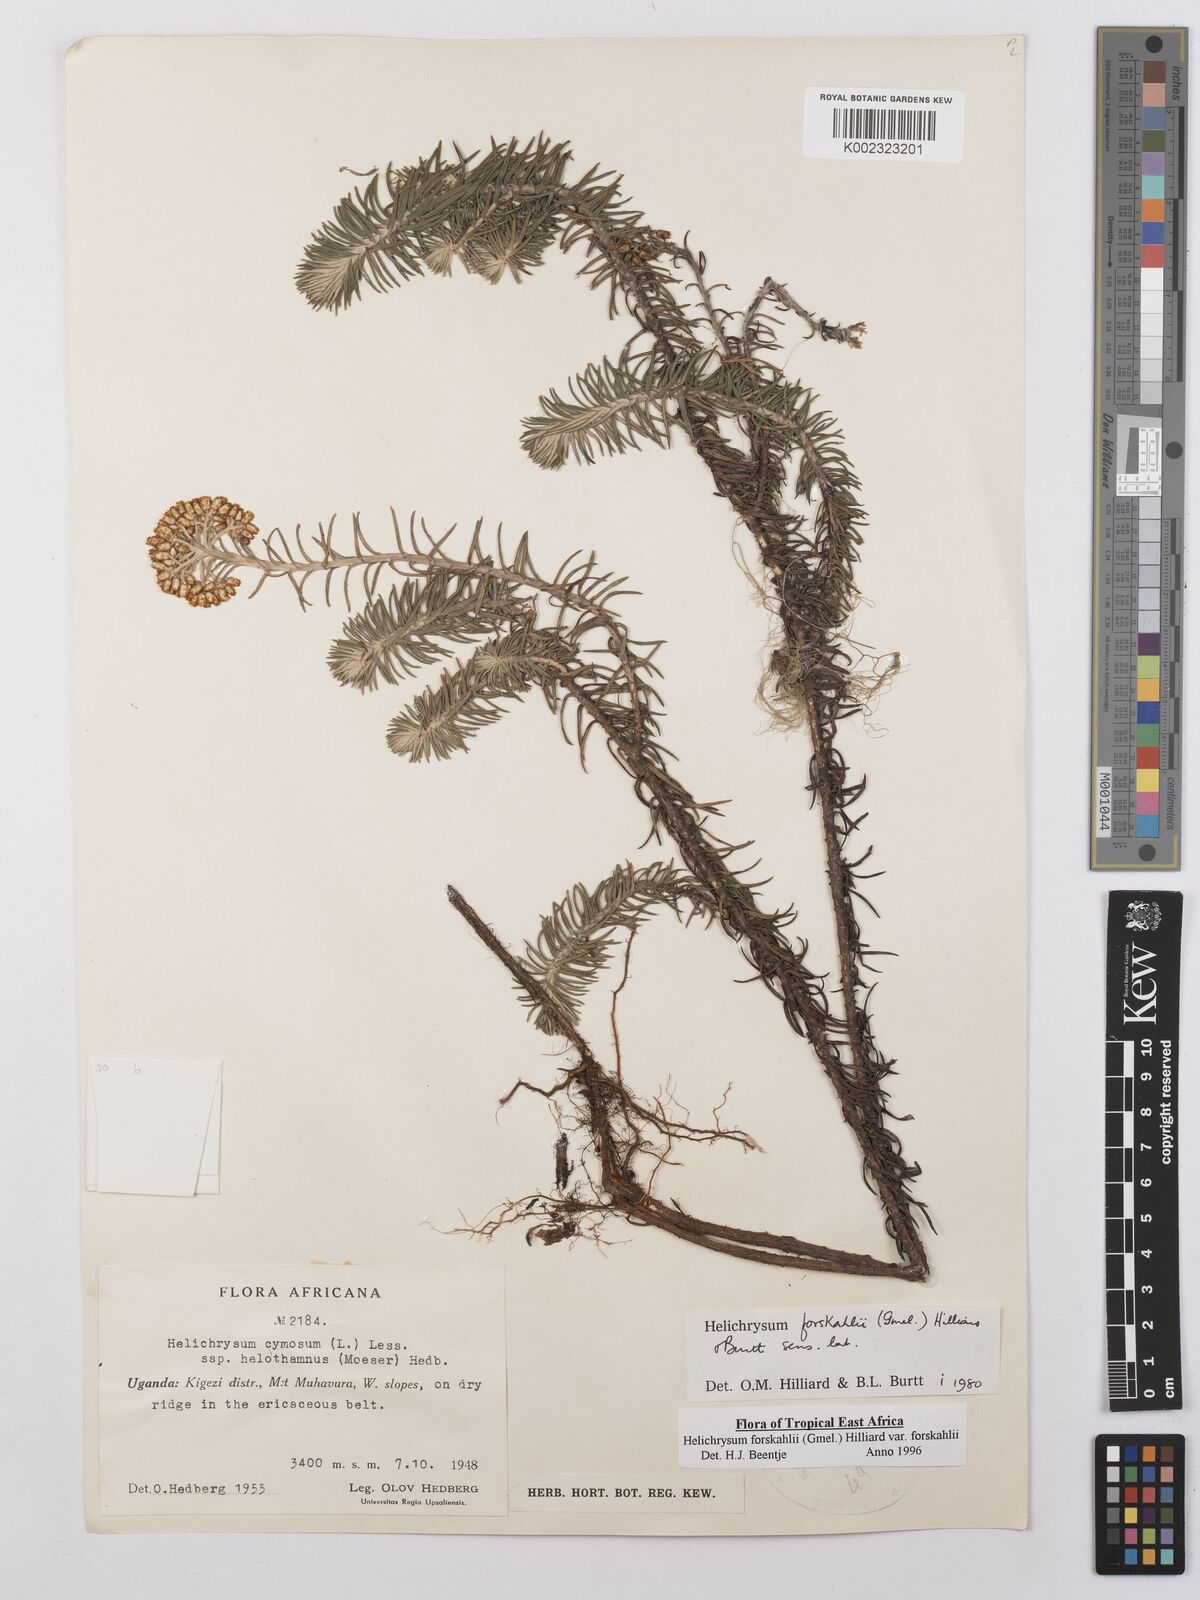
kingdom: Plantae
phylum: Tracheophyta
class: Magnoliopsida
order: Asterales
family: Asteraceae
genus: Helichrysum
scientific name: Helichrysum forskahlii
